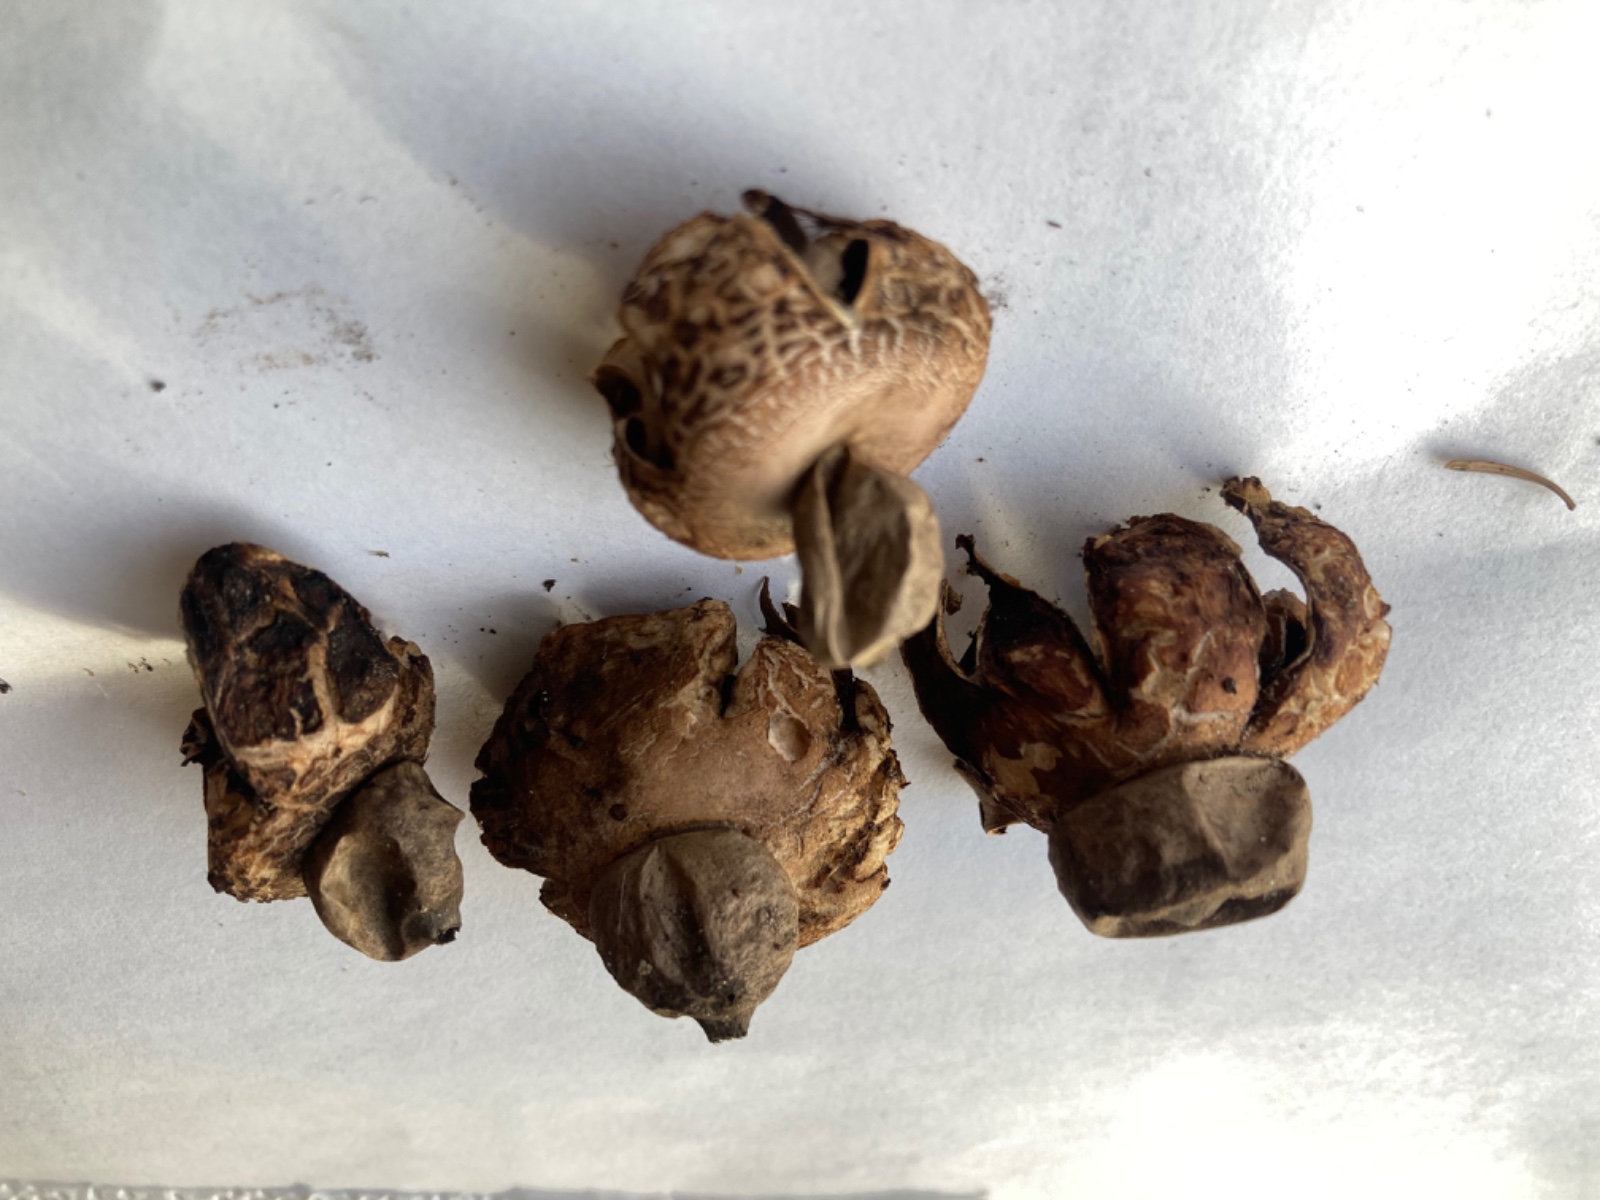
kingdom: Fungi
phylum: Basidiomycota
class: Agaricomycetes
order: Geastrales
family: Geastraceae
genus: Geastrum
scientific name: Geastrum saccatum
